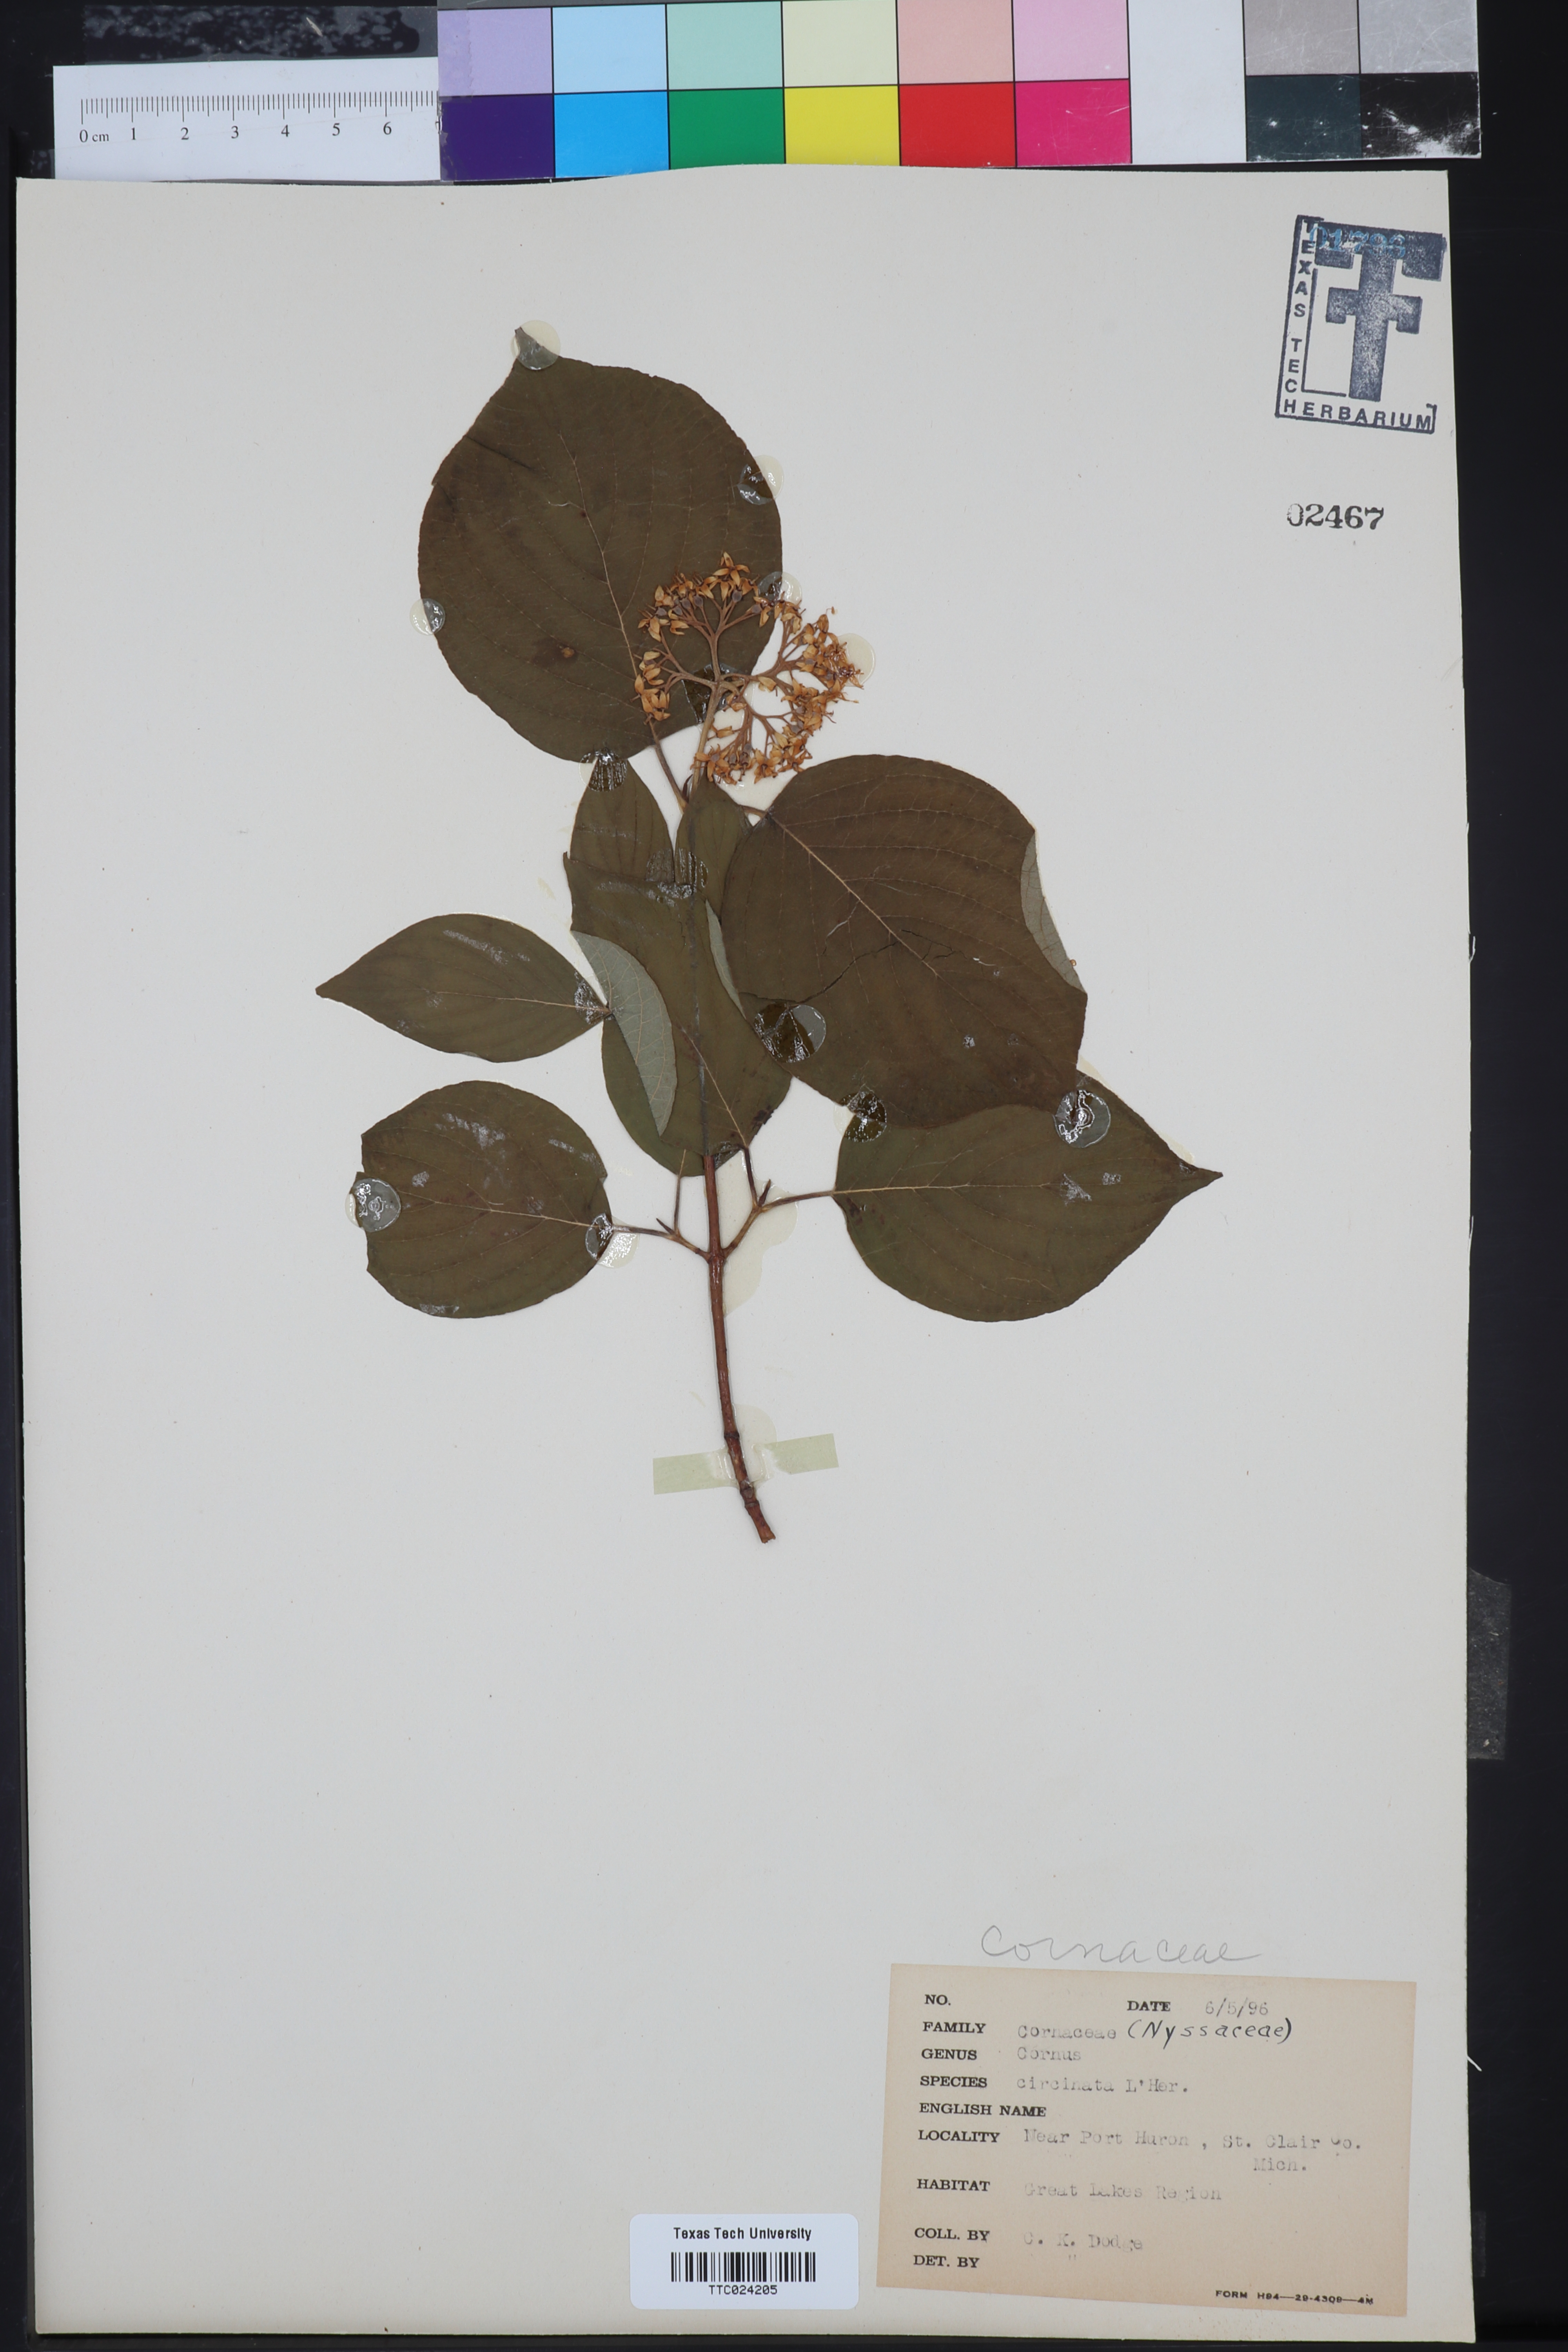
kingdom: Plantae
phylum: Tracheophyta
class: Magnoliopsida
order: Cornales
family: Cornaceae
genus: Cornus
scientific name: Cornus rugosa
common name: Round-leaf dogwood
